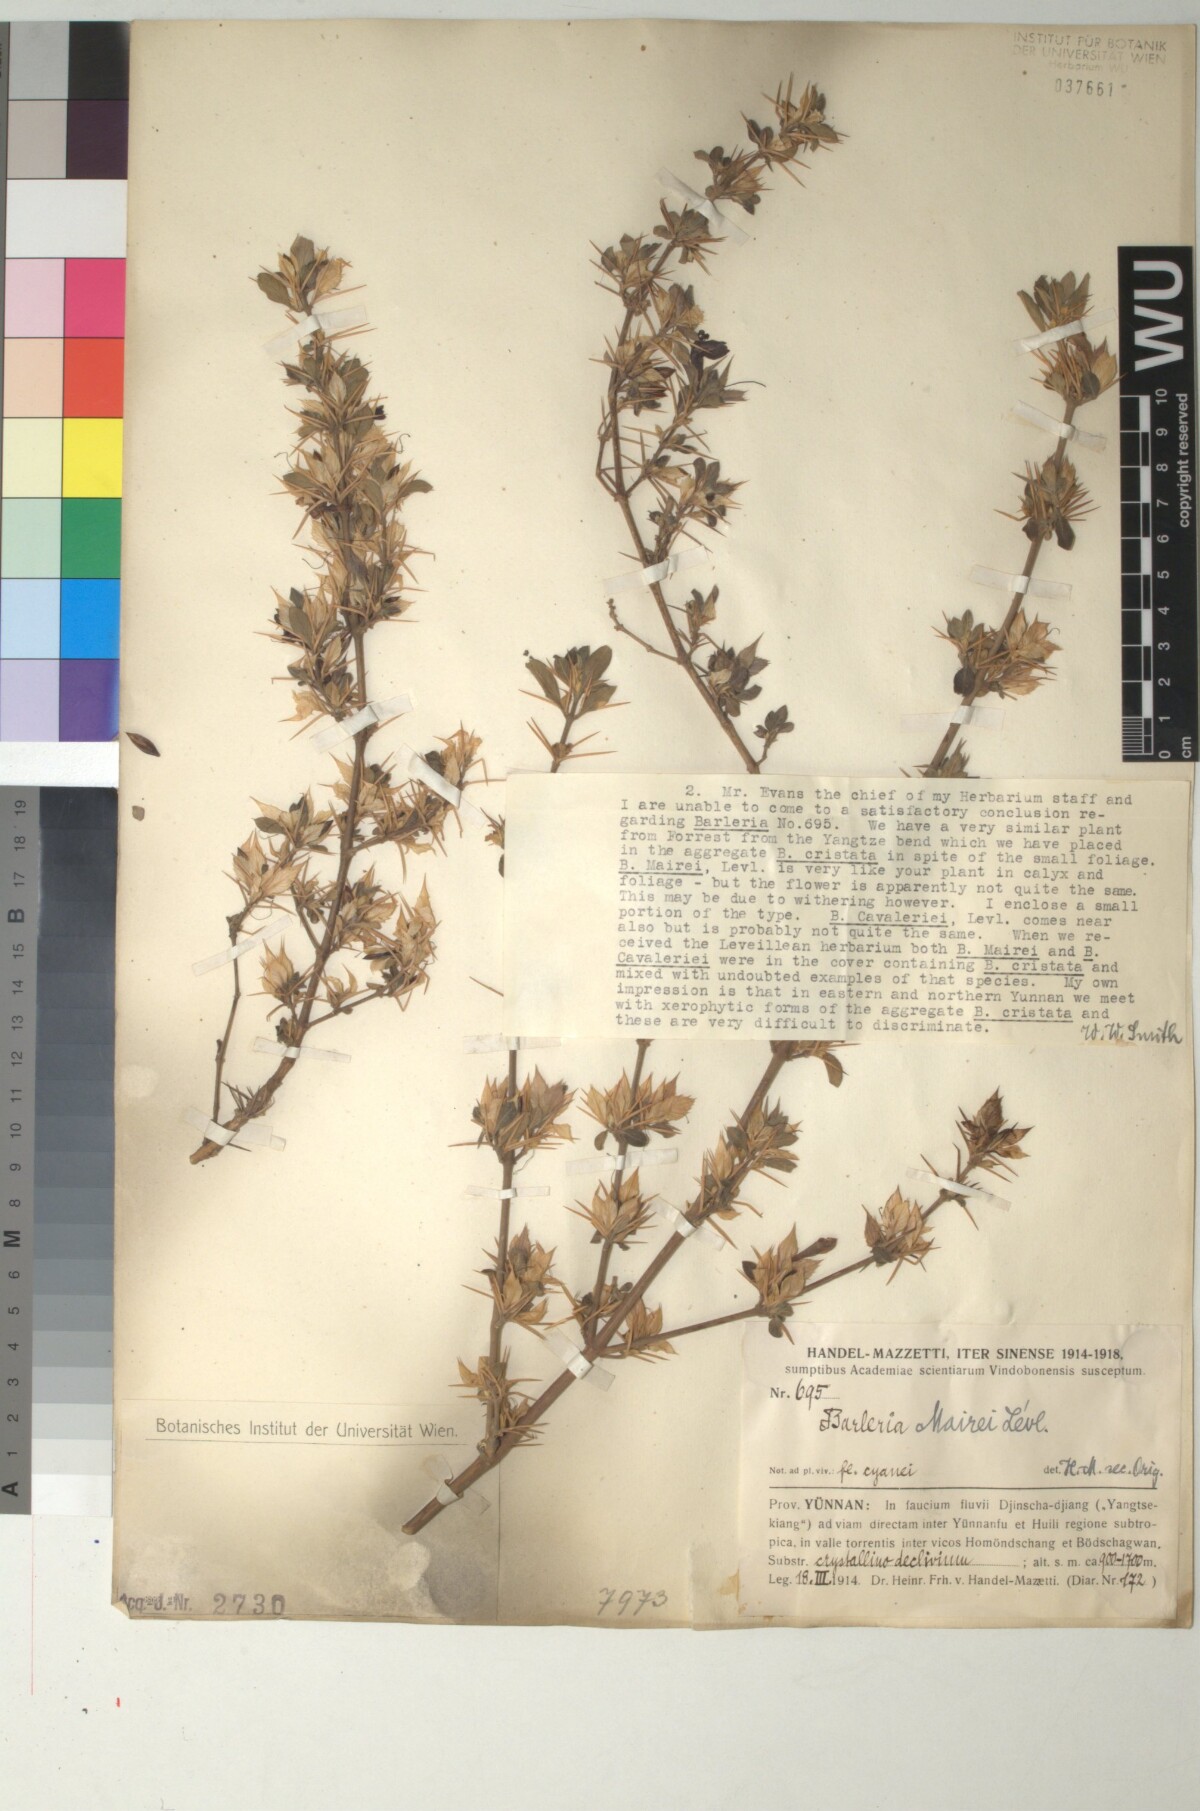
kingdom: Plantae
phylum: Tracheophyta
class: Magnoliopsida
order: Lamiales
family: Acanthaceae
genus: Barleria
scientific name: Barleria cristata
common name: Crested philippine violet
